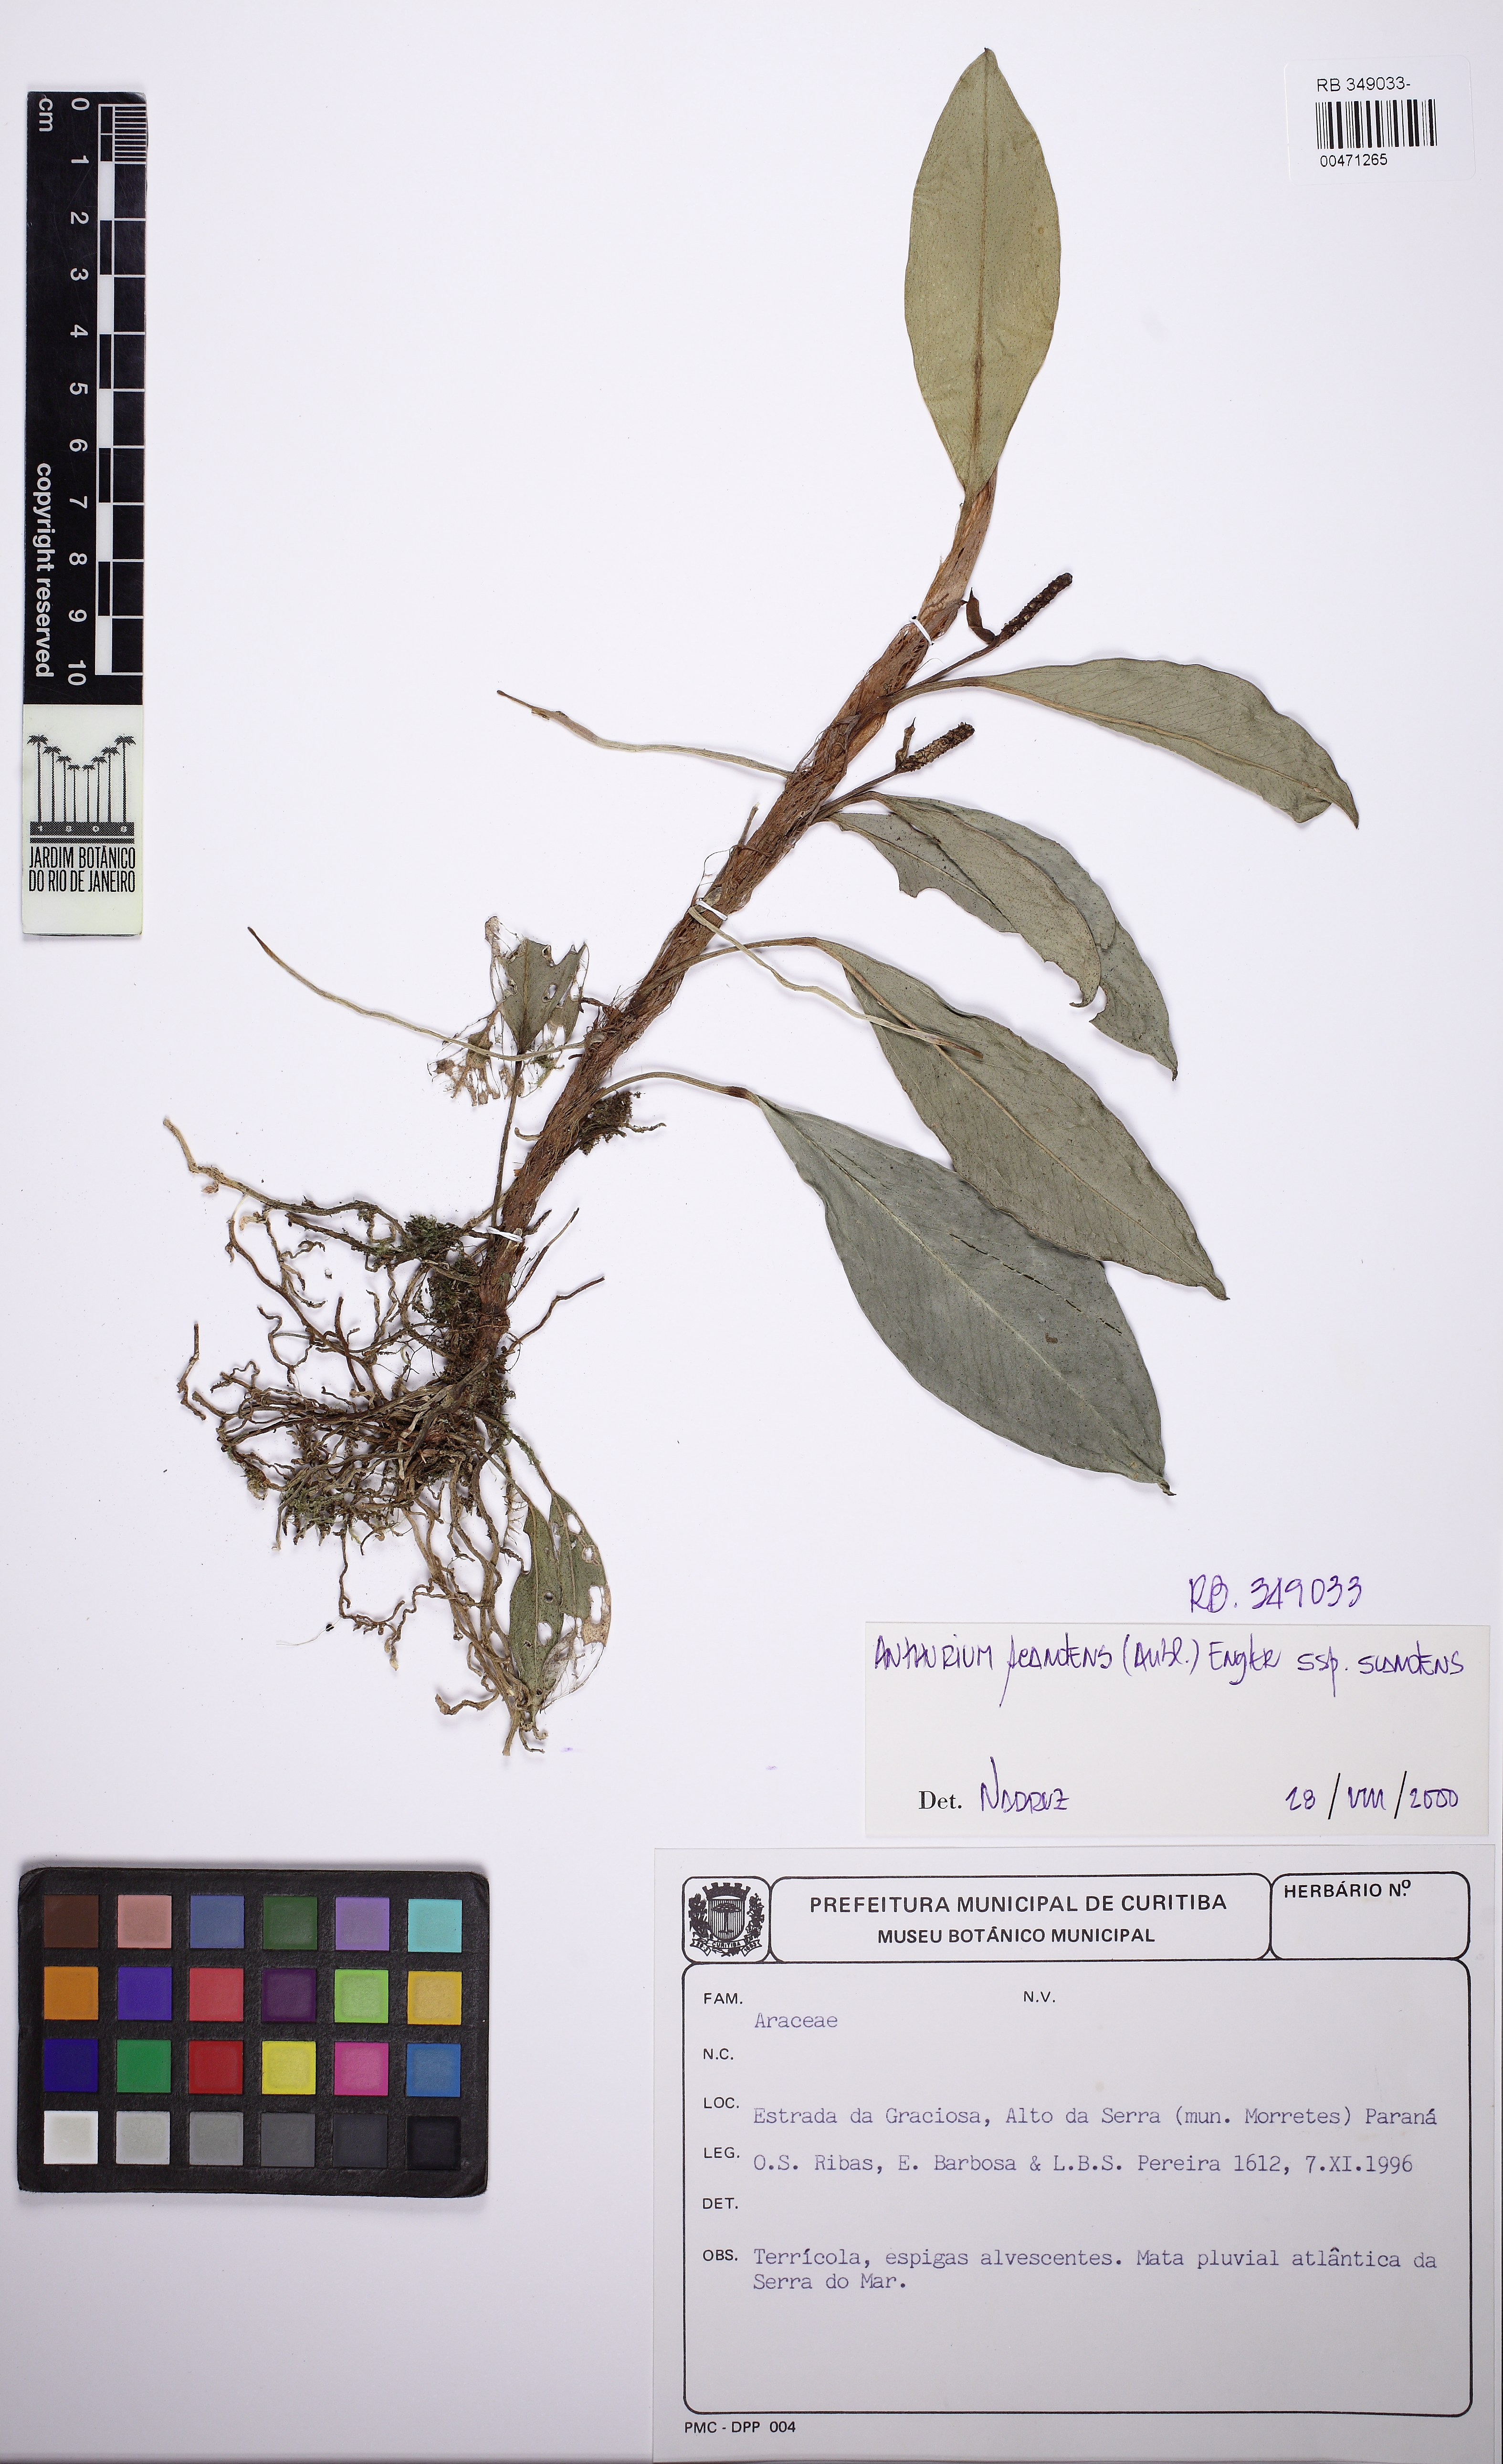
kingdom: Plantae
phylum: Tracheophyta
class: Liliopsida
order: Alismatales
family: Araceae
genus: Anthurium
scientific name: Anthurium scandens
